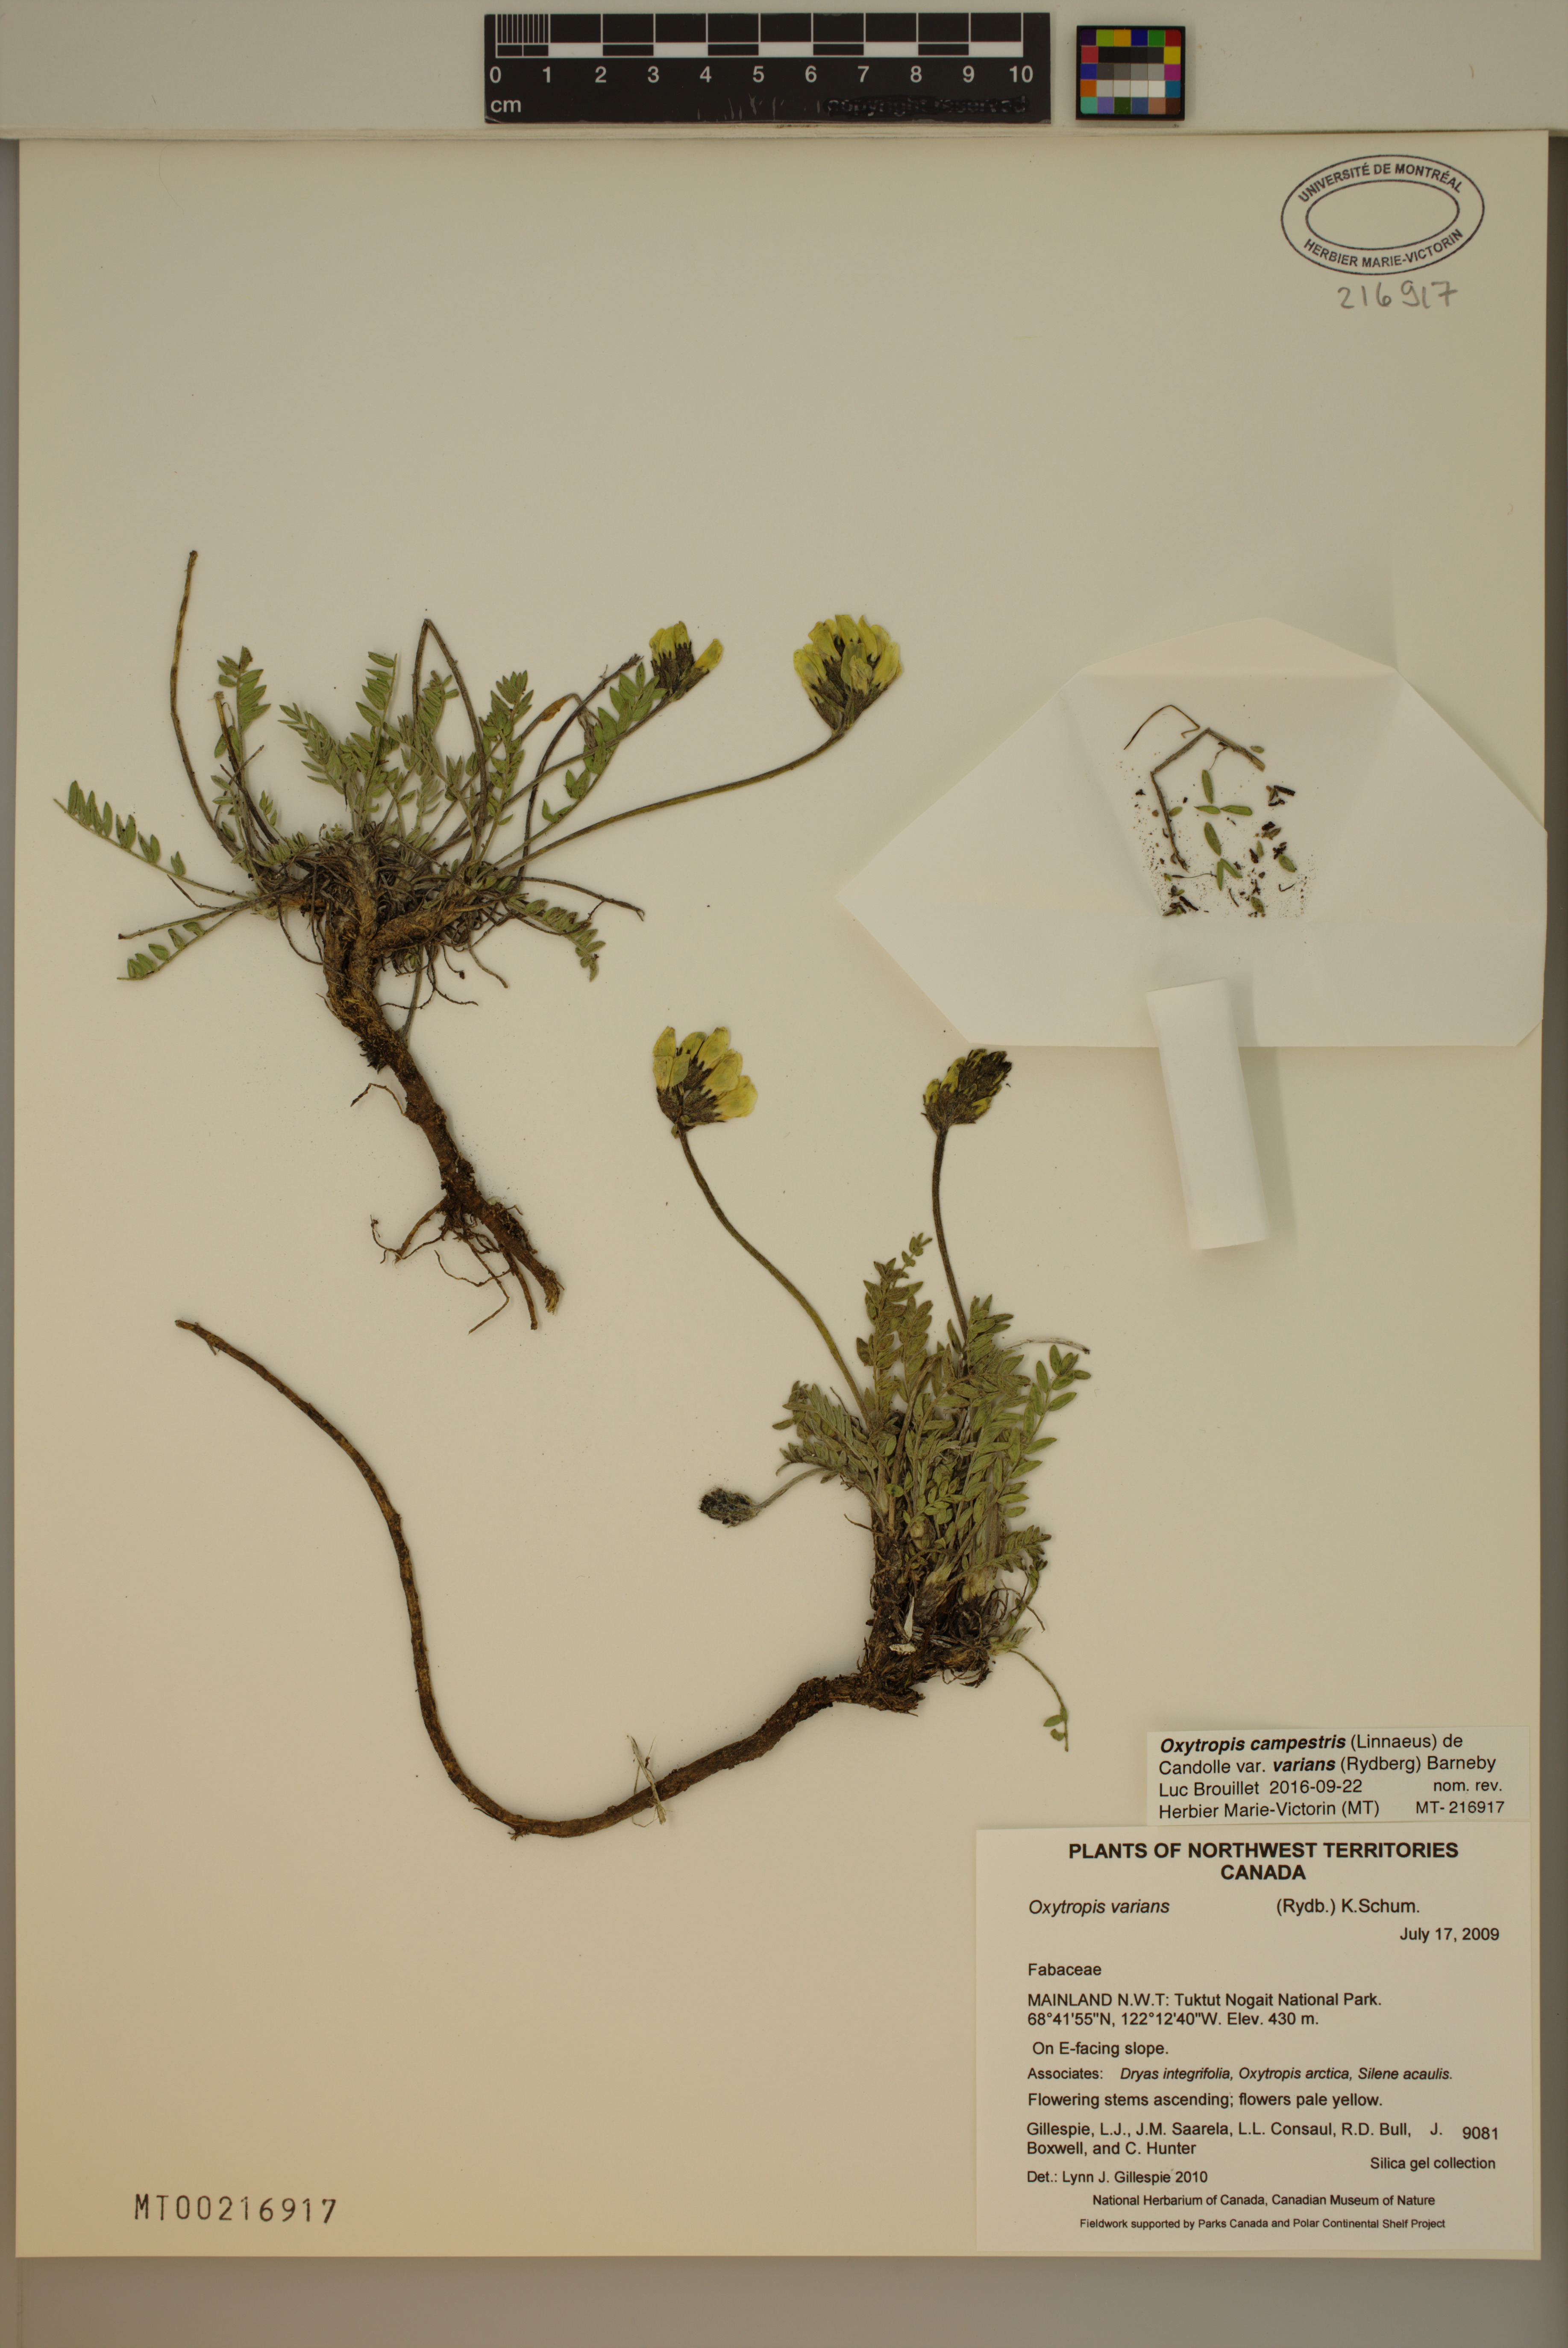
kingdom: Plantae
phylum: Tracheophyta
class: Magnoliopsida
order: Fabales
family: Fabaceae
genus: Oxytropis
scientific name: Oxytropis campestris
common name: Field locoweed
